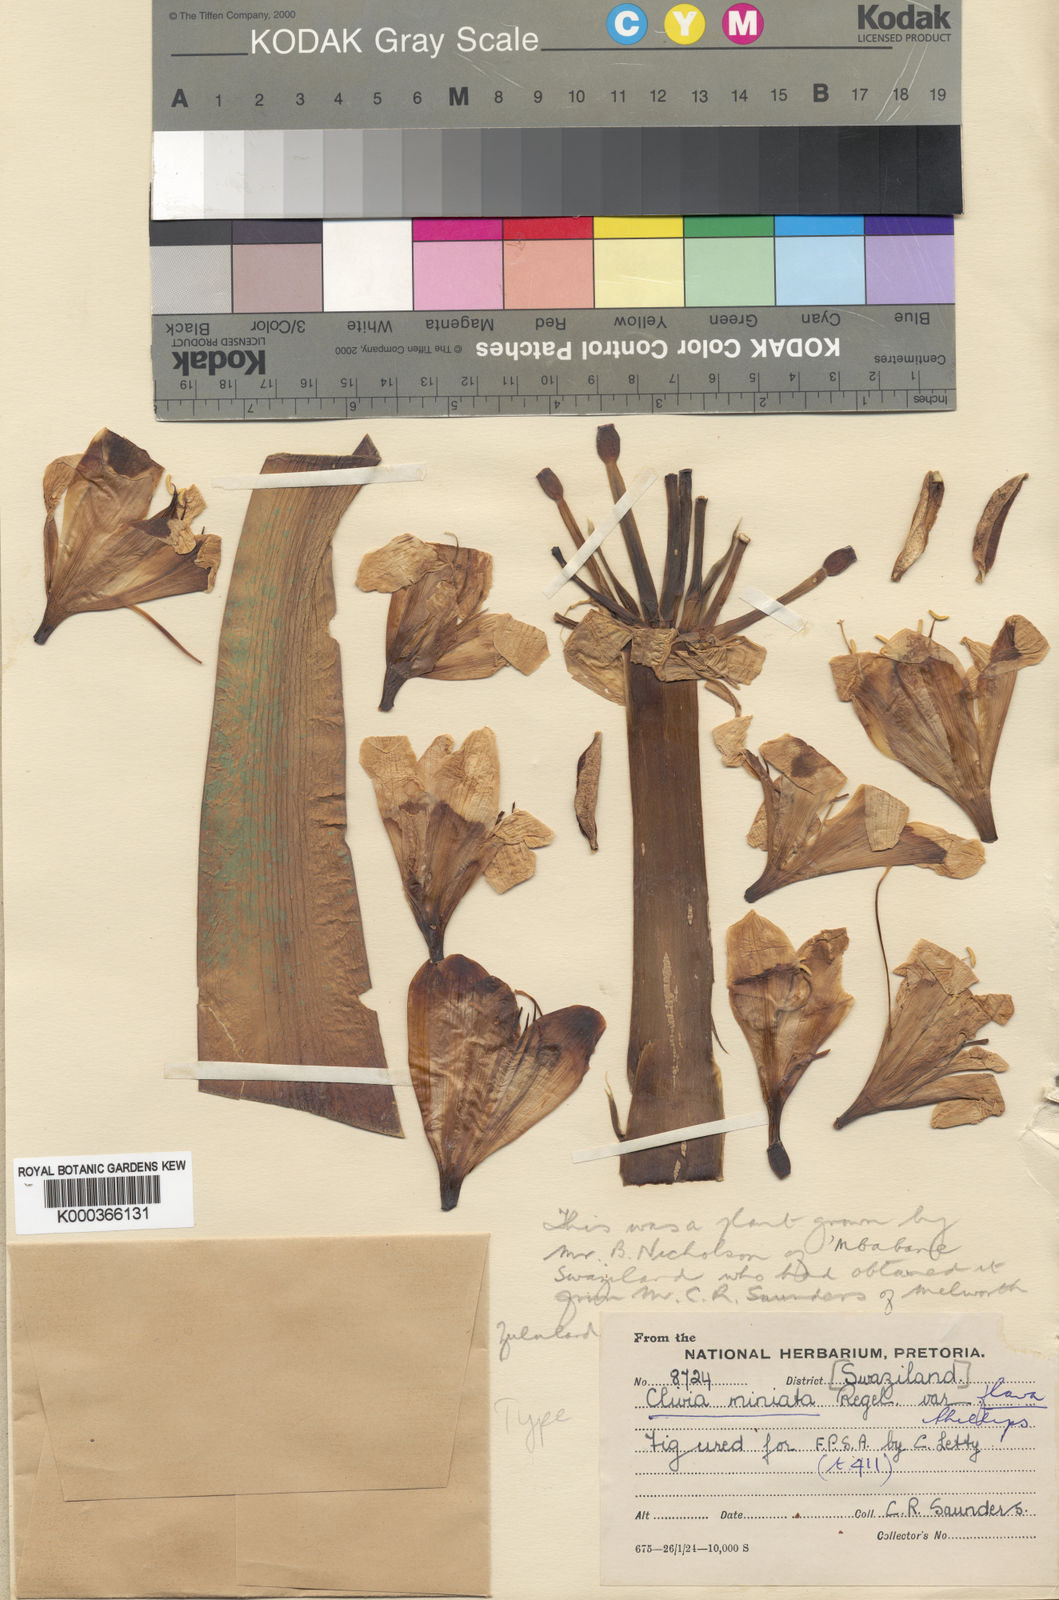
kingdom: Plantae
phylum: Tracheophyta
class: Liliopsida
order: Asparagales
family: Amaryllidaceae
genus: Clivia
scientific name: Clivia
